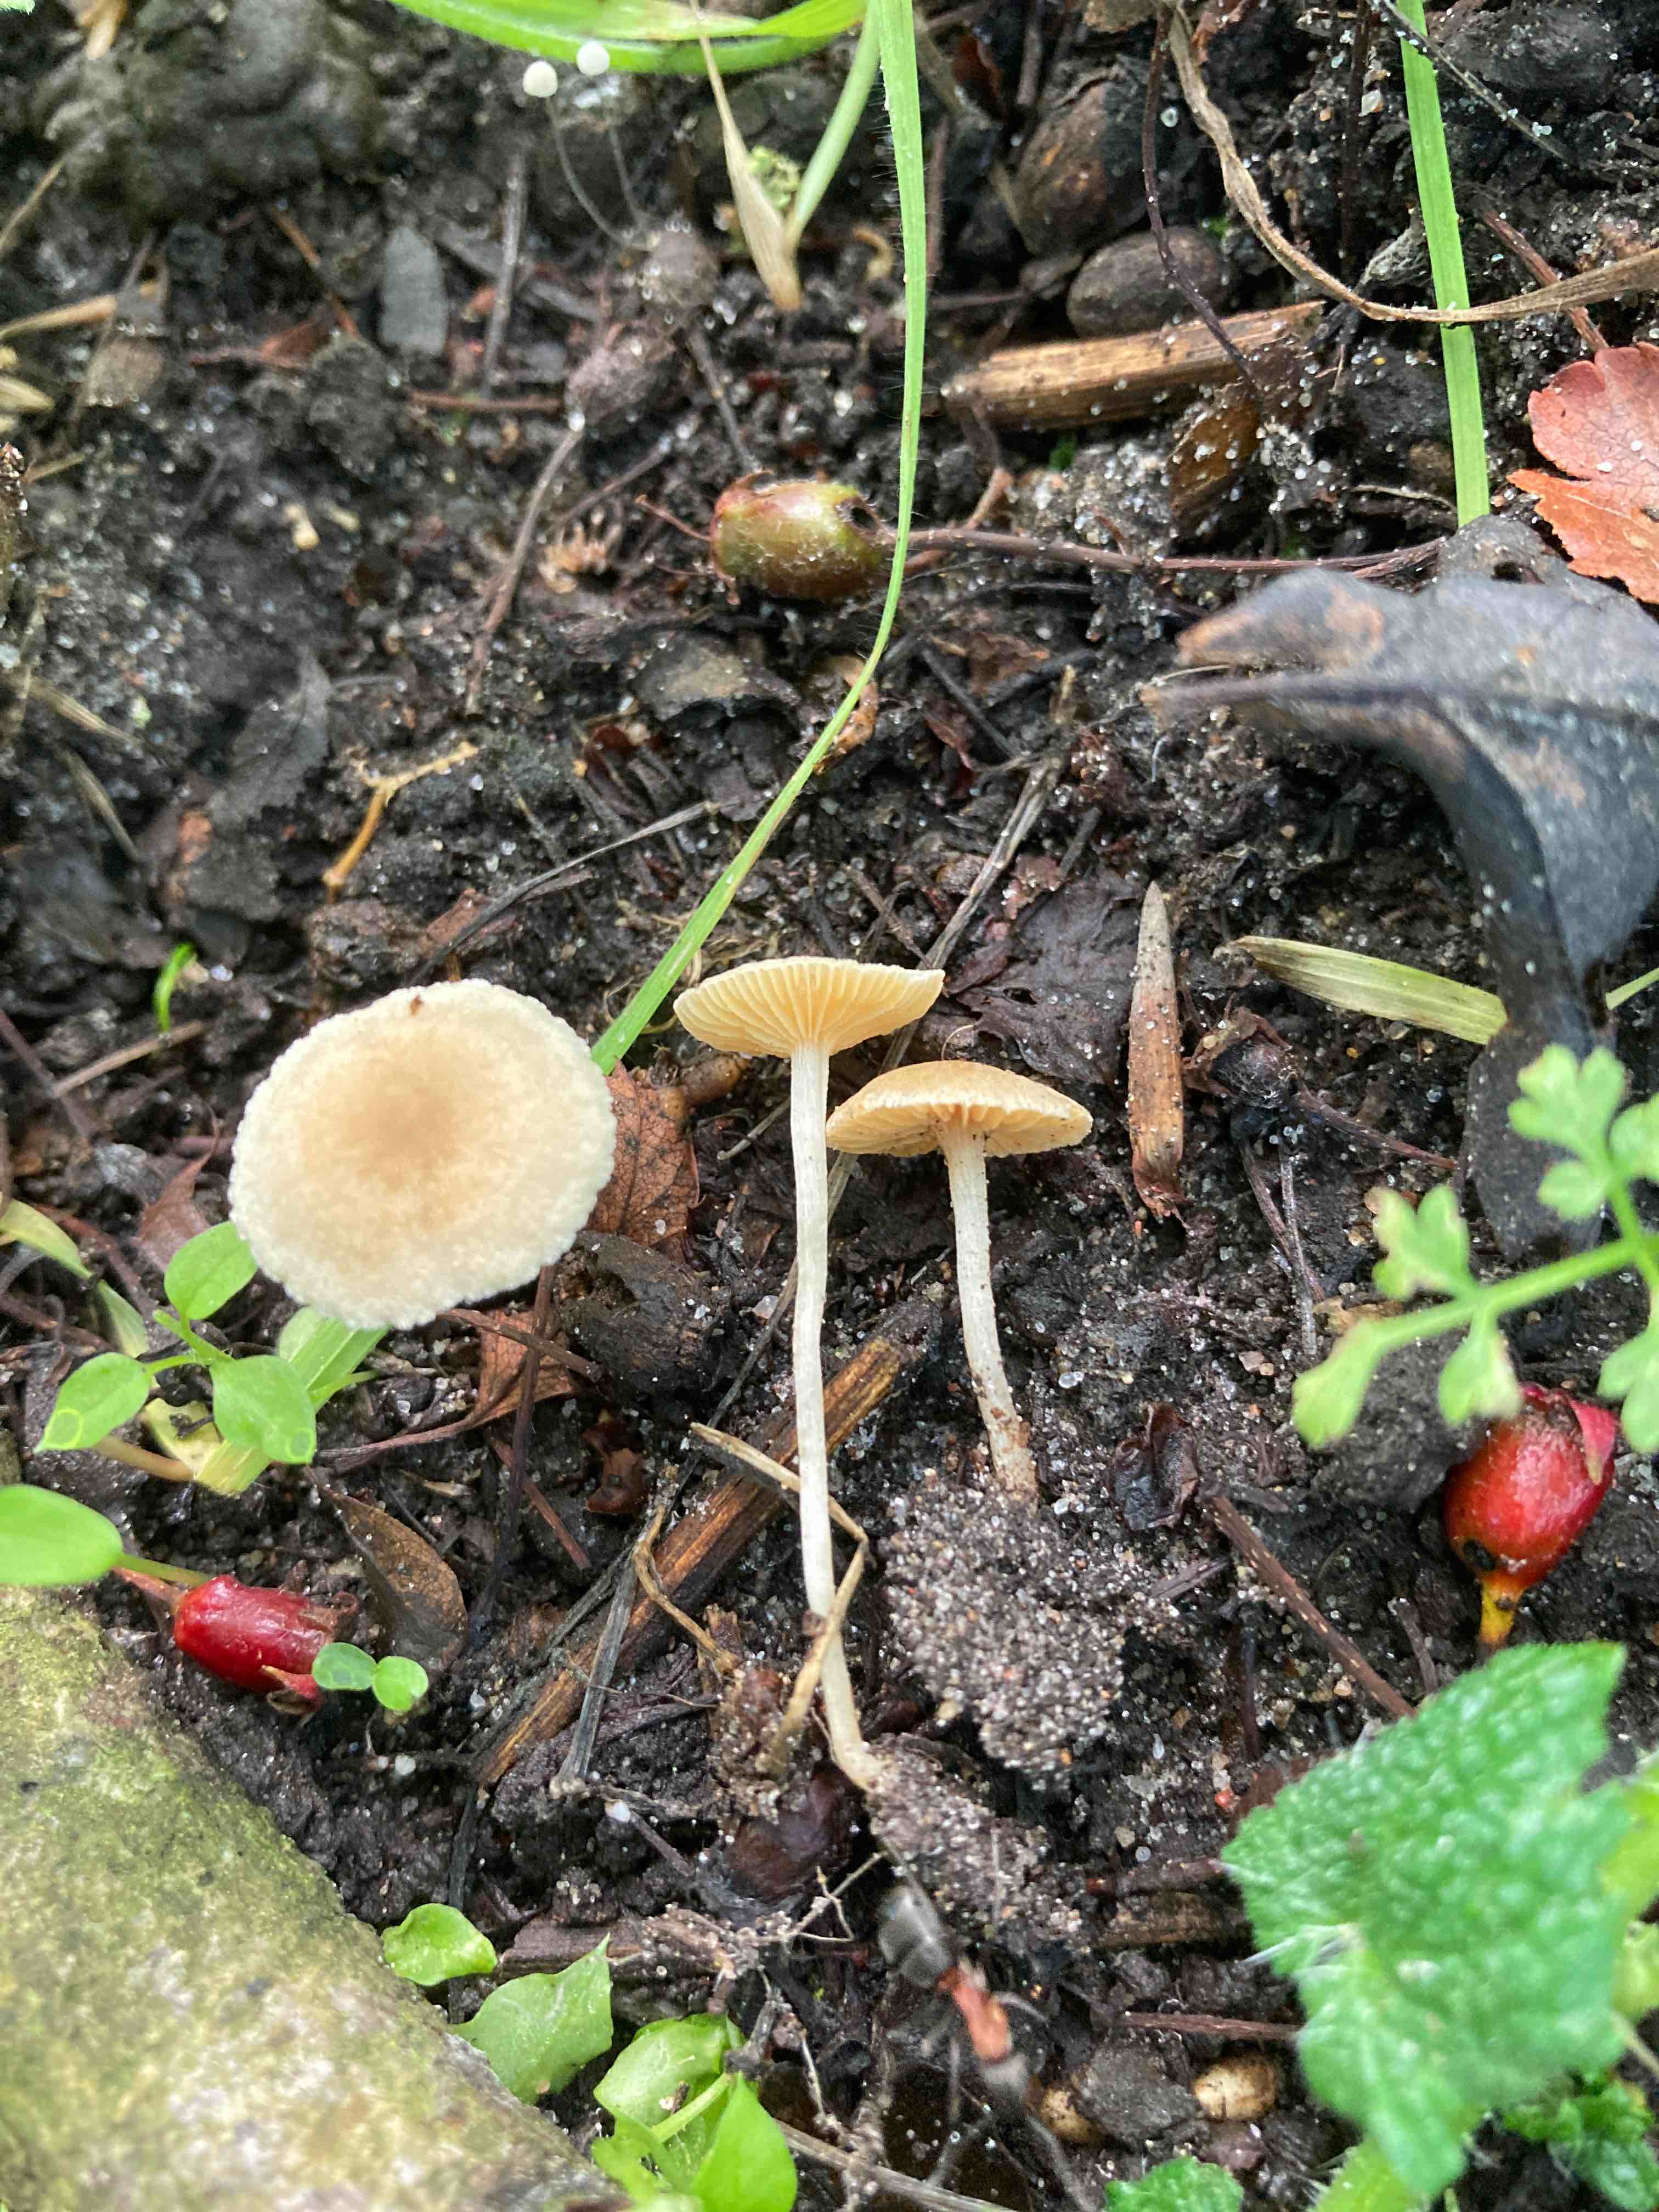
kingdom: Fungi
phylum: Basidiomycota
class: Agaricomycetes
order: Agaricales
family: Tubariaceae
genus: Tubaria
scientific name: Tubaria dispersa
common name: tjørne-fnughat
